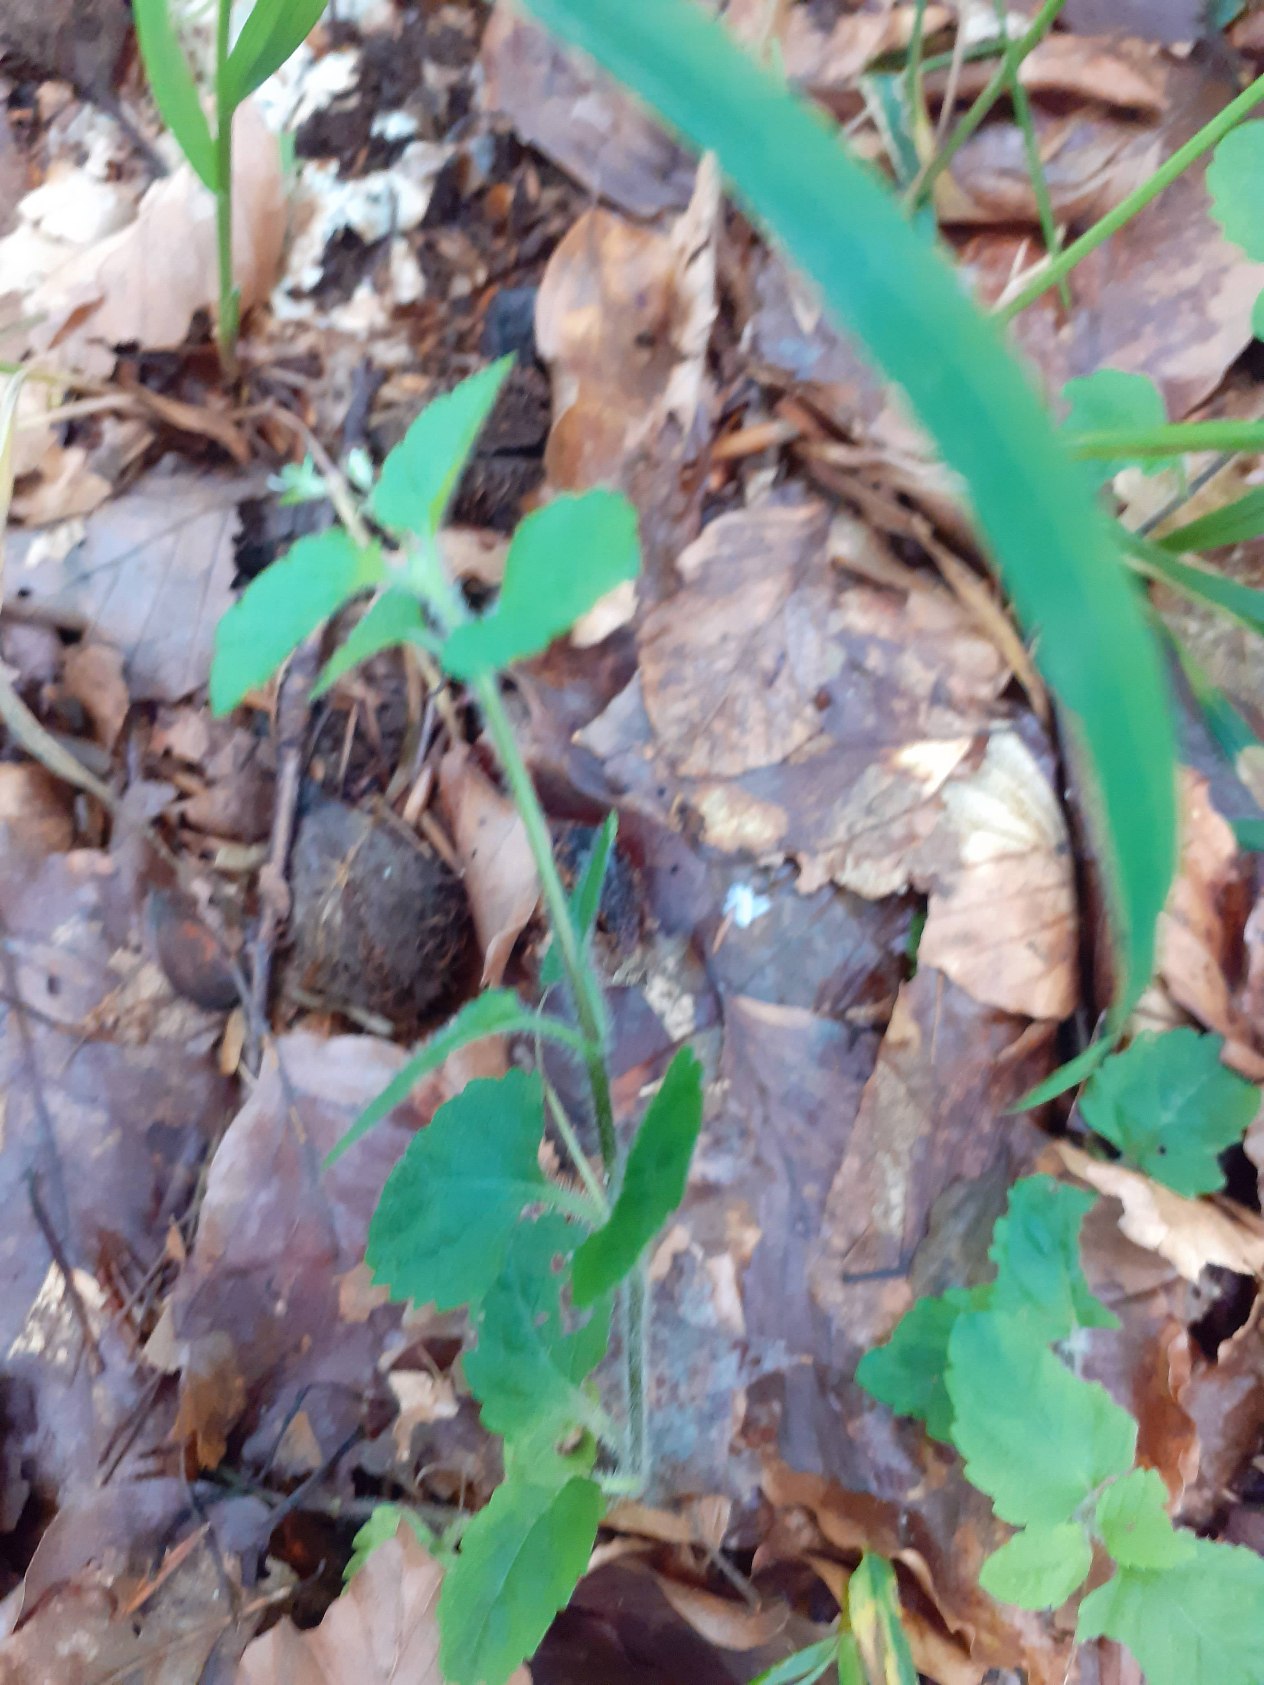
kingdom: Plantae
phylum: Tracheophyta
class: Magnoliopsida
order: Lamiales
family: Plantaginaceae
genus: Veronica
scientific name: Veronica montana
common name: Bjerg-ærenpris
